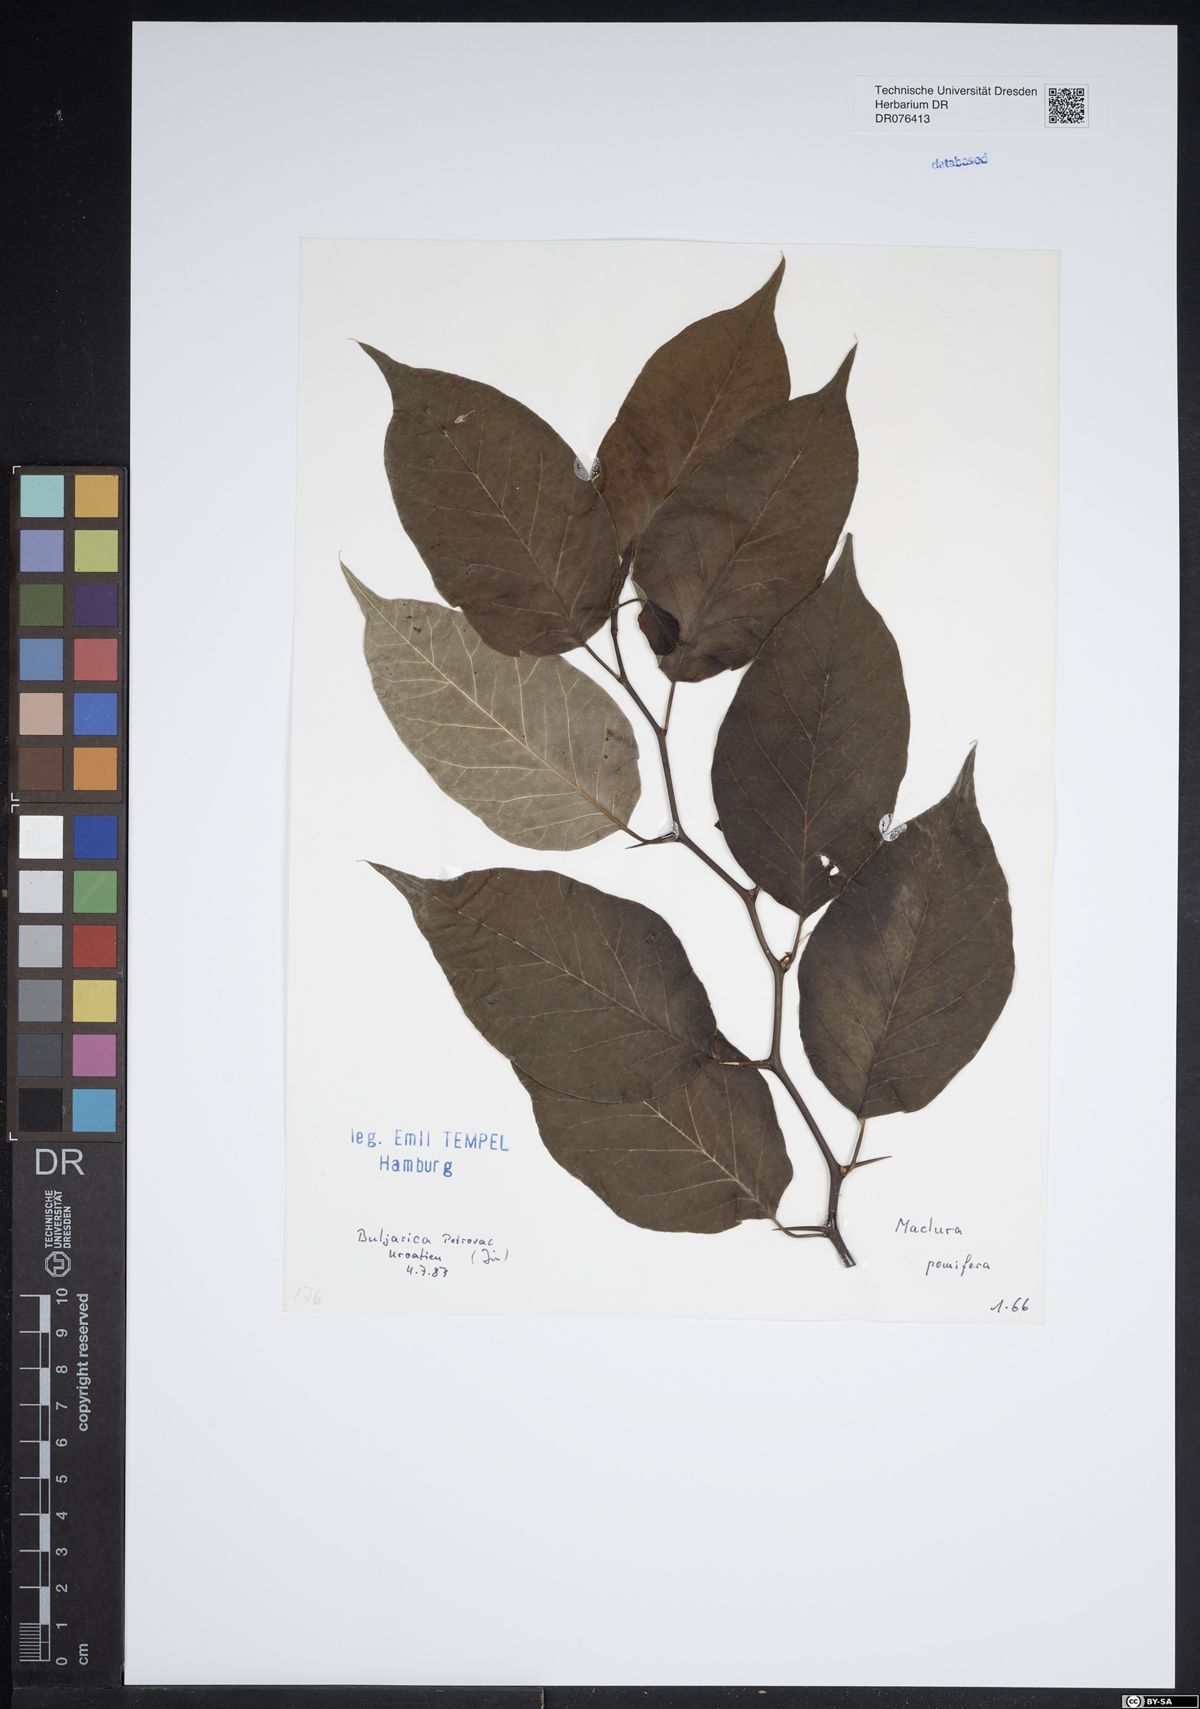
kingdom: Plantae
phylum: Tracheophyta
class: Magnoliopsida
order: Rosales
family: Moraceae
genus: Maclura
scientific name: Maclura pomifera
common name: Osage-orange
